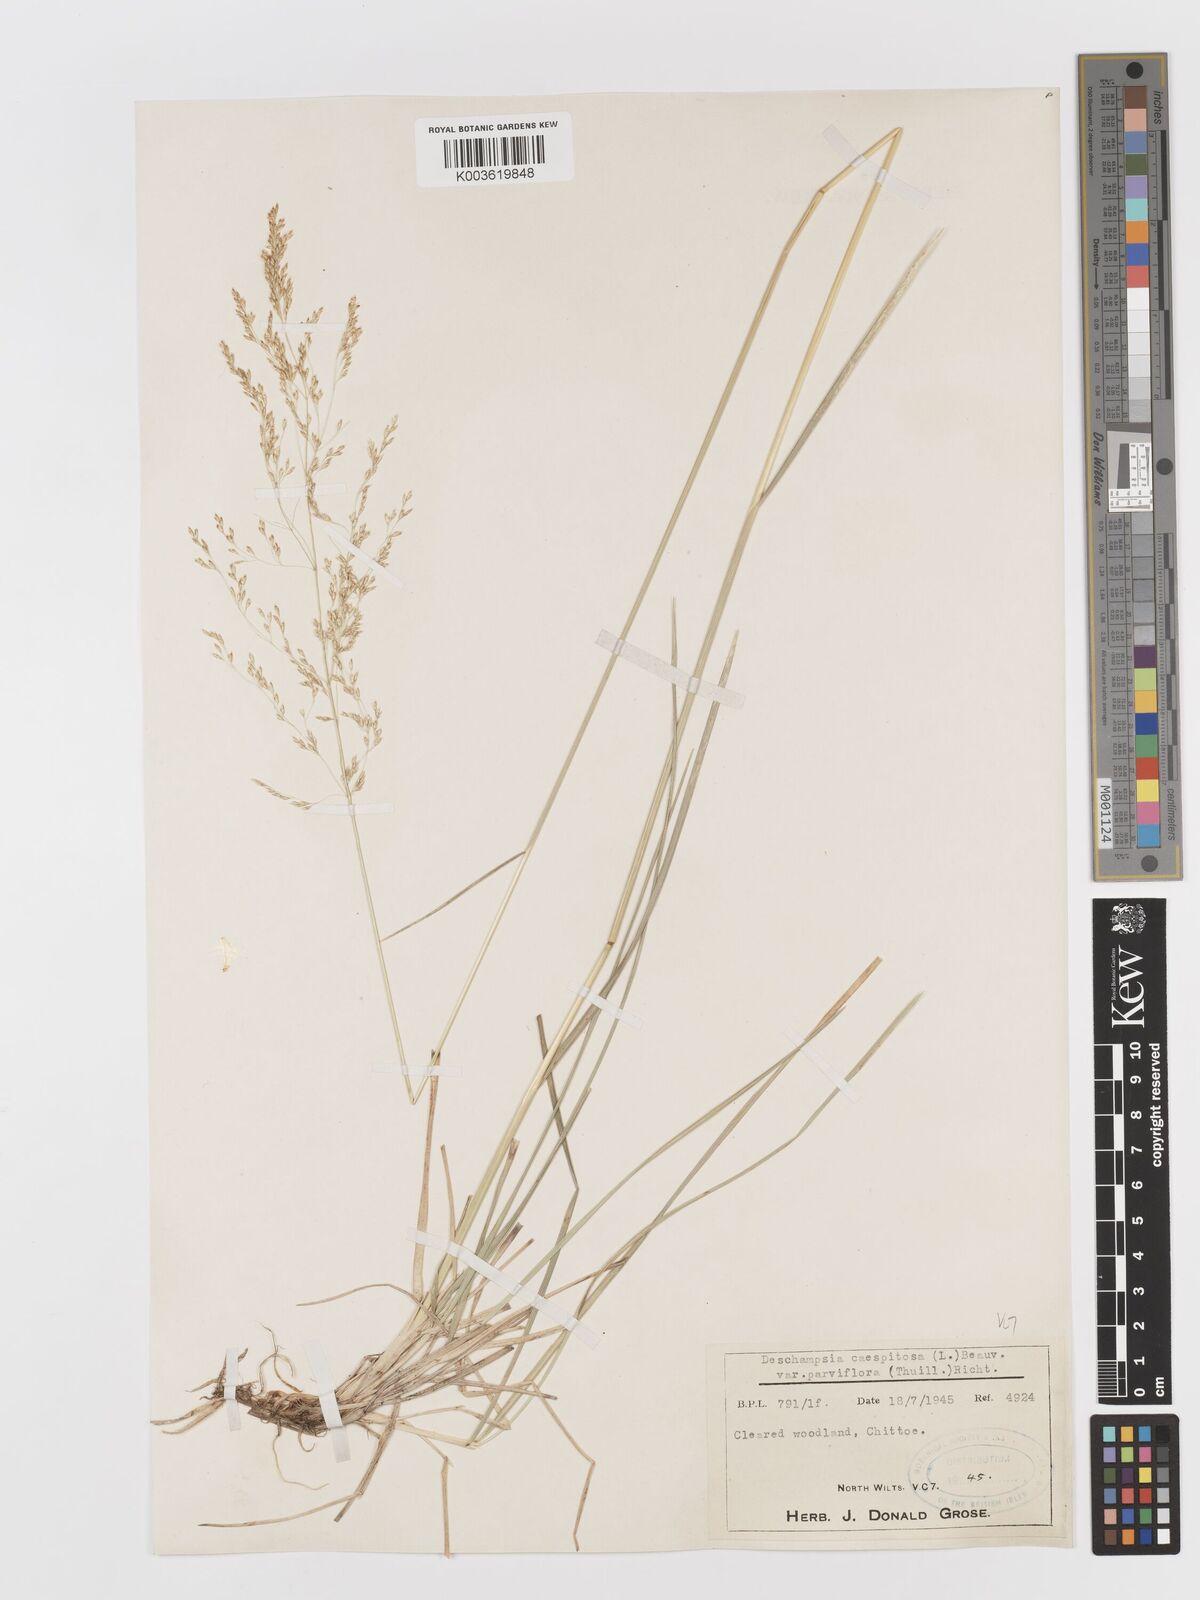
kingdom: Plantae
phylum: Tracheophyta
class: Liliopsida
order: Poales
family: Poaceae
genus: Deschampsia
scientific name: Deschampsia cespitosa
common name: Tufted hair-grass
